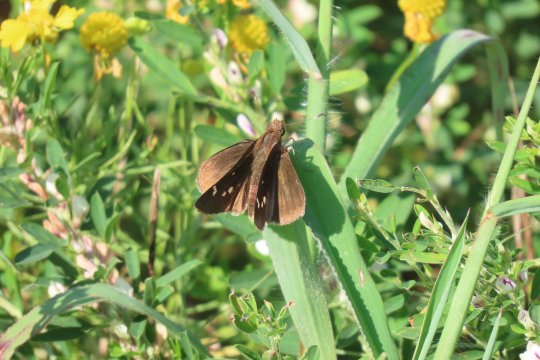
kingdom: Animalia
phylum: Arthropoda
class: Insecta
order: Lepidoptera
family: Hesperiidae
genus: Lerema
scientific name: Lerema accius
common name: Clouded Skipper
